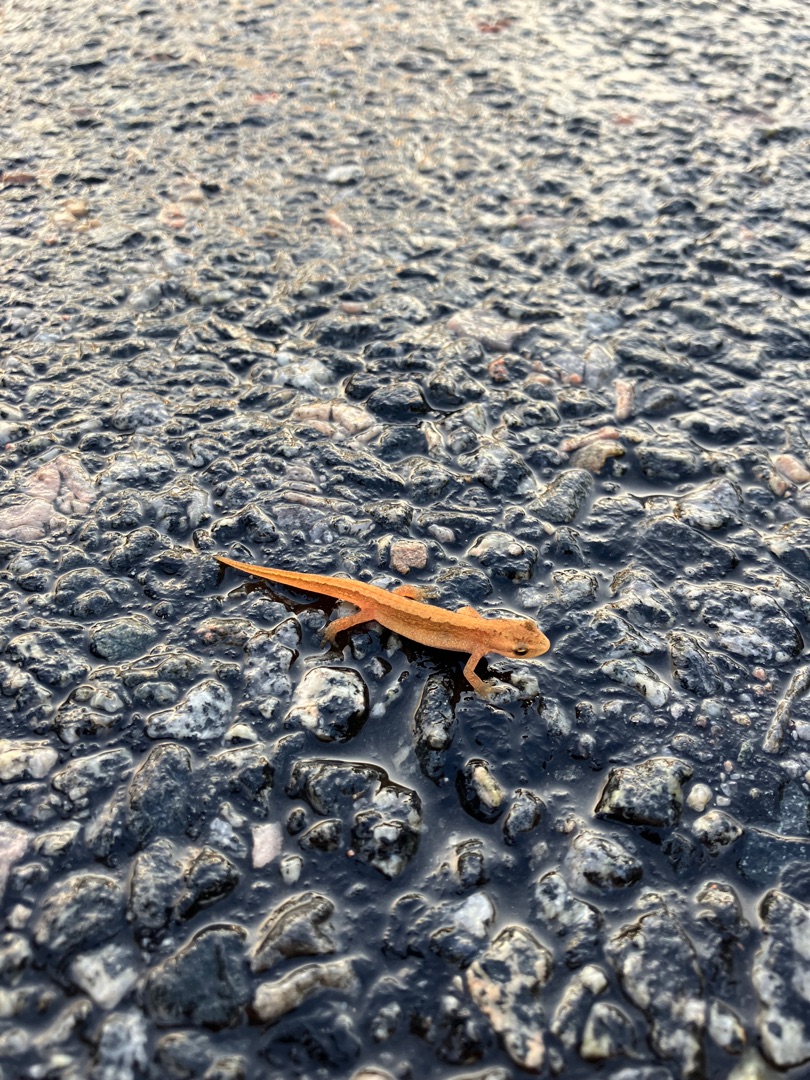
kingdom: Animalia
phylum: Chordata
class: Amphibia
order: Caudata
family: Salamandridae
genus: Lissotriton
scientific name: Lissotriton vulgaris
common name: Lille vandsalamander
